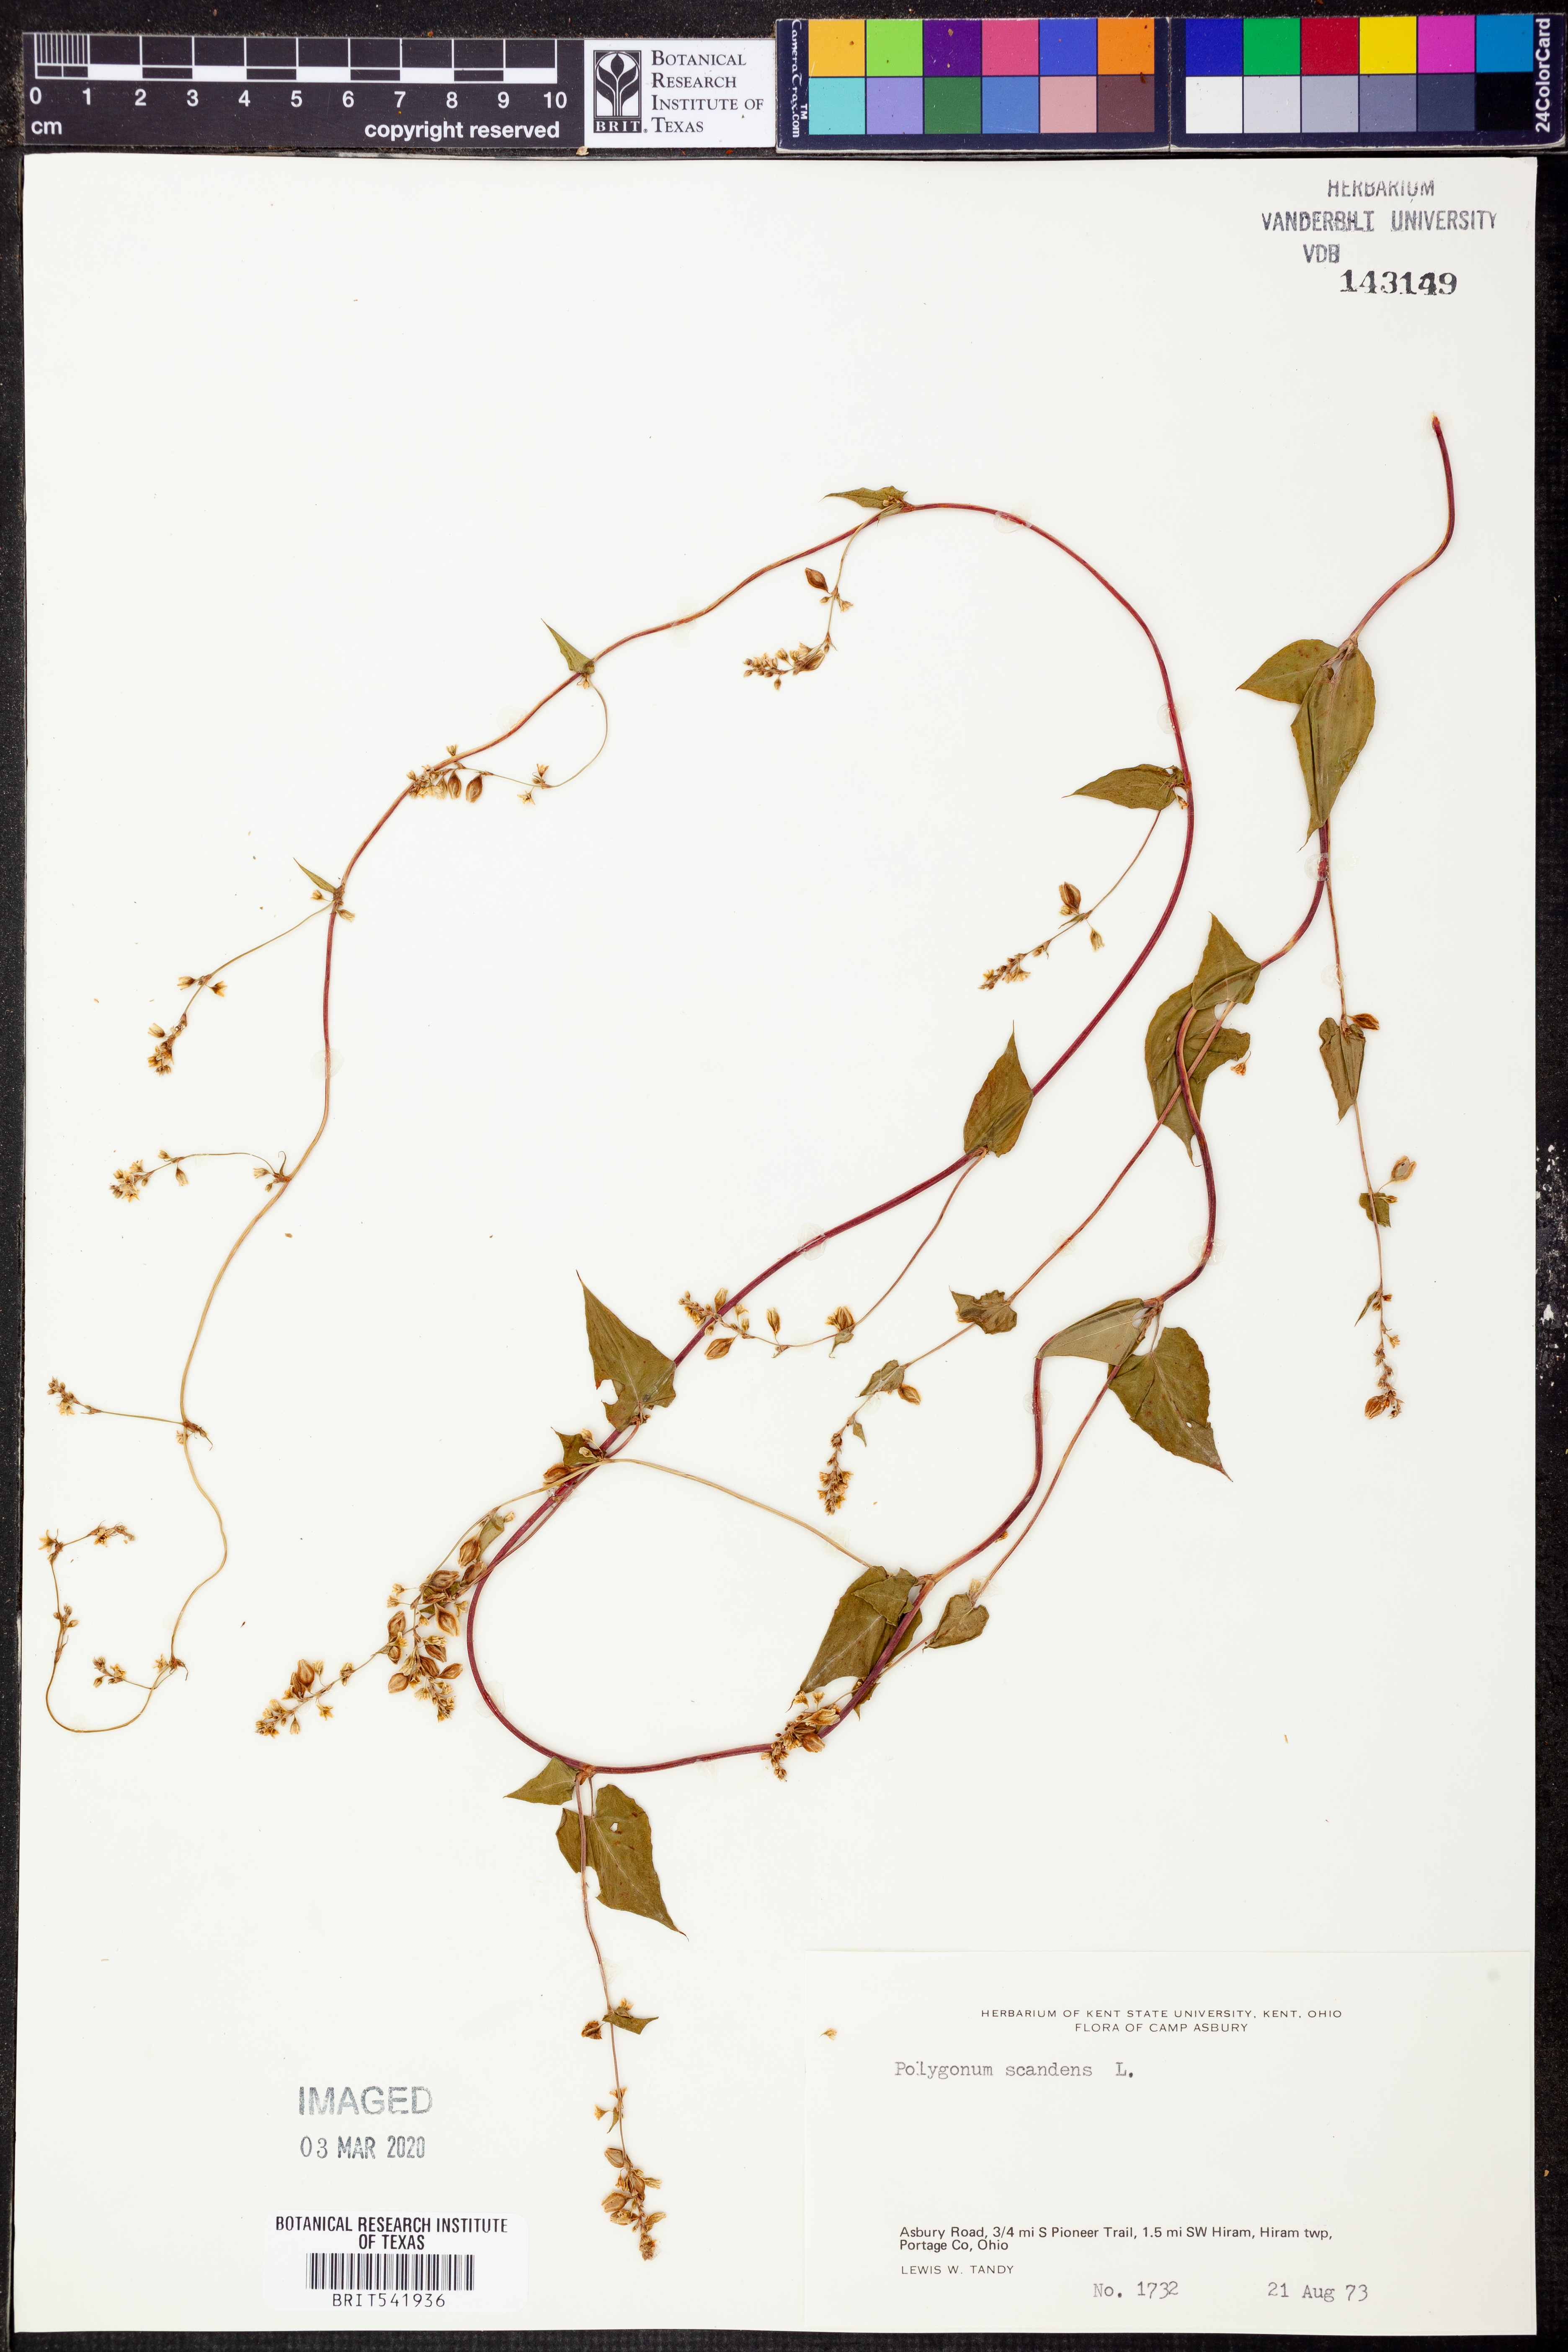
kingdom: Plantae
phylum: Tracheophyta
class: Magnoliopsida
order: Caryophyllales
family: Polygonaceae
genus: Fallopia
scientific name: Fallopia scandens
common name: Climbing false buckwheat
